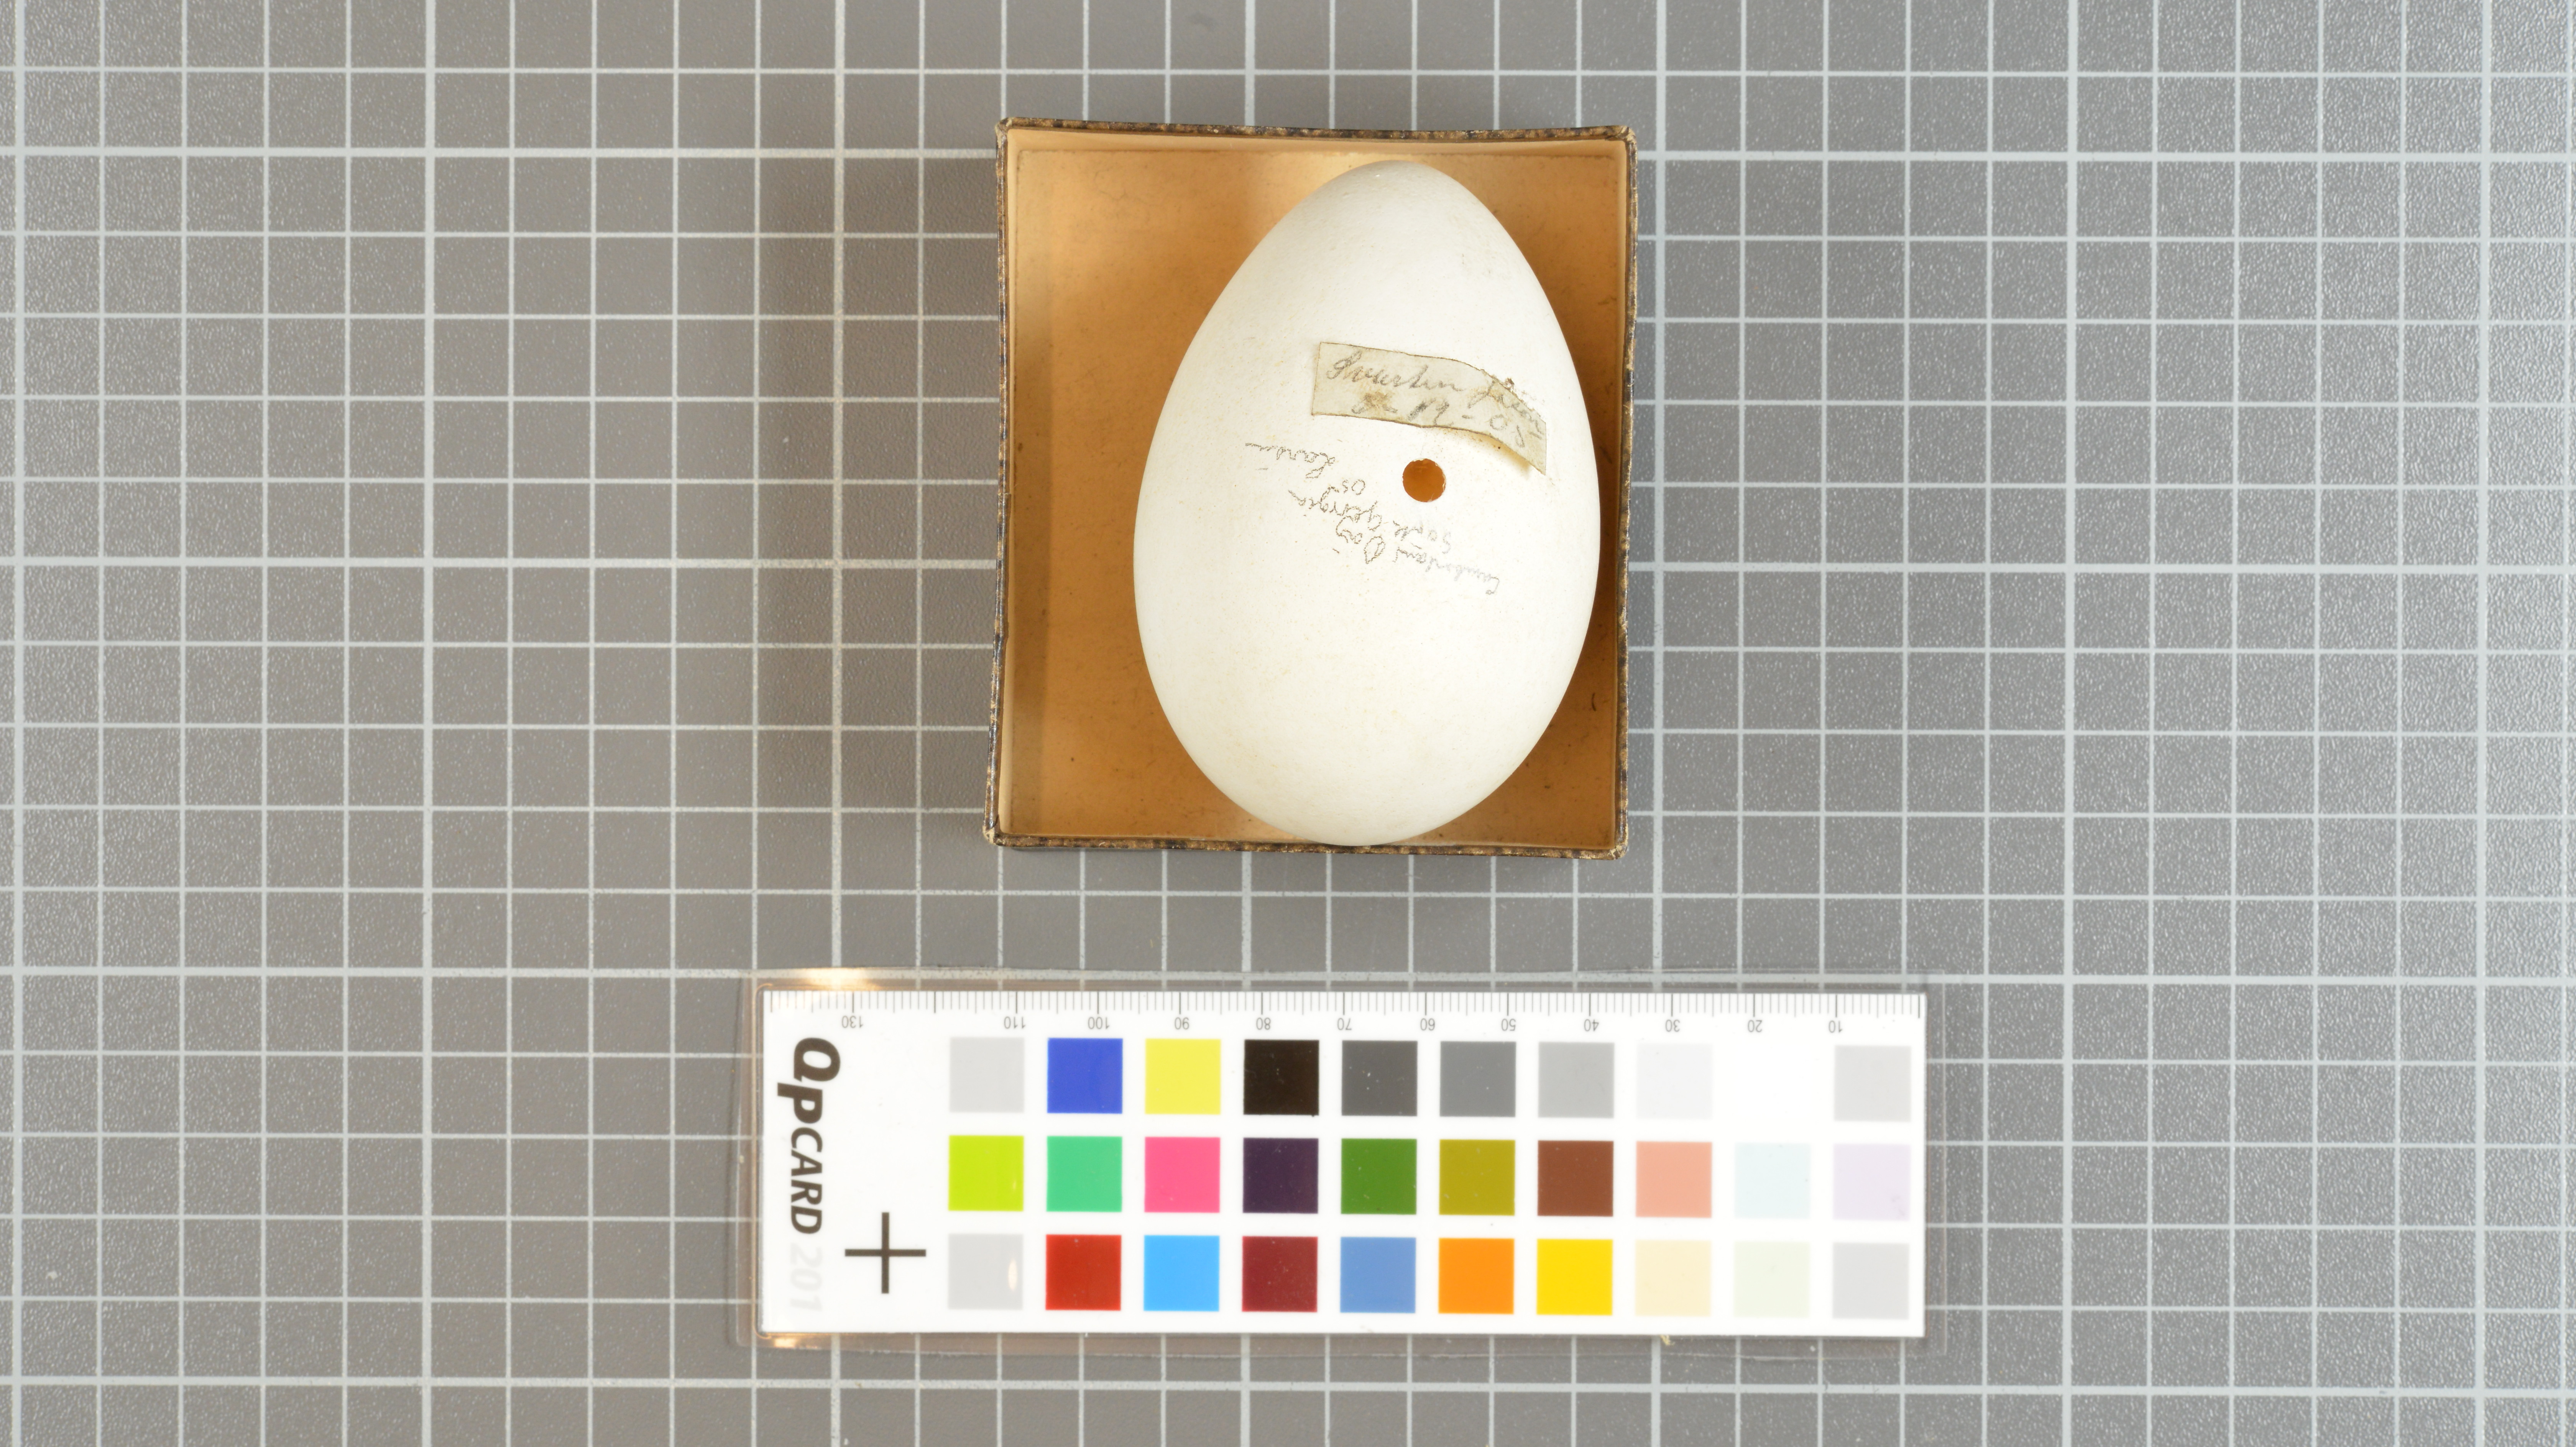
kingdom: Animalia
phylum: Chordata
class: Aves
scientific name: Aves
